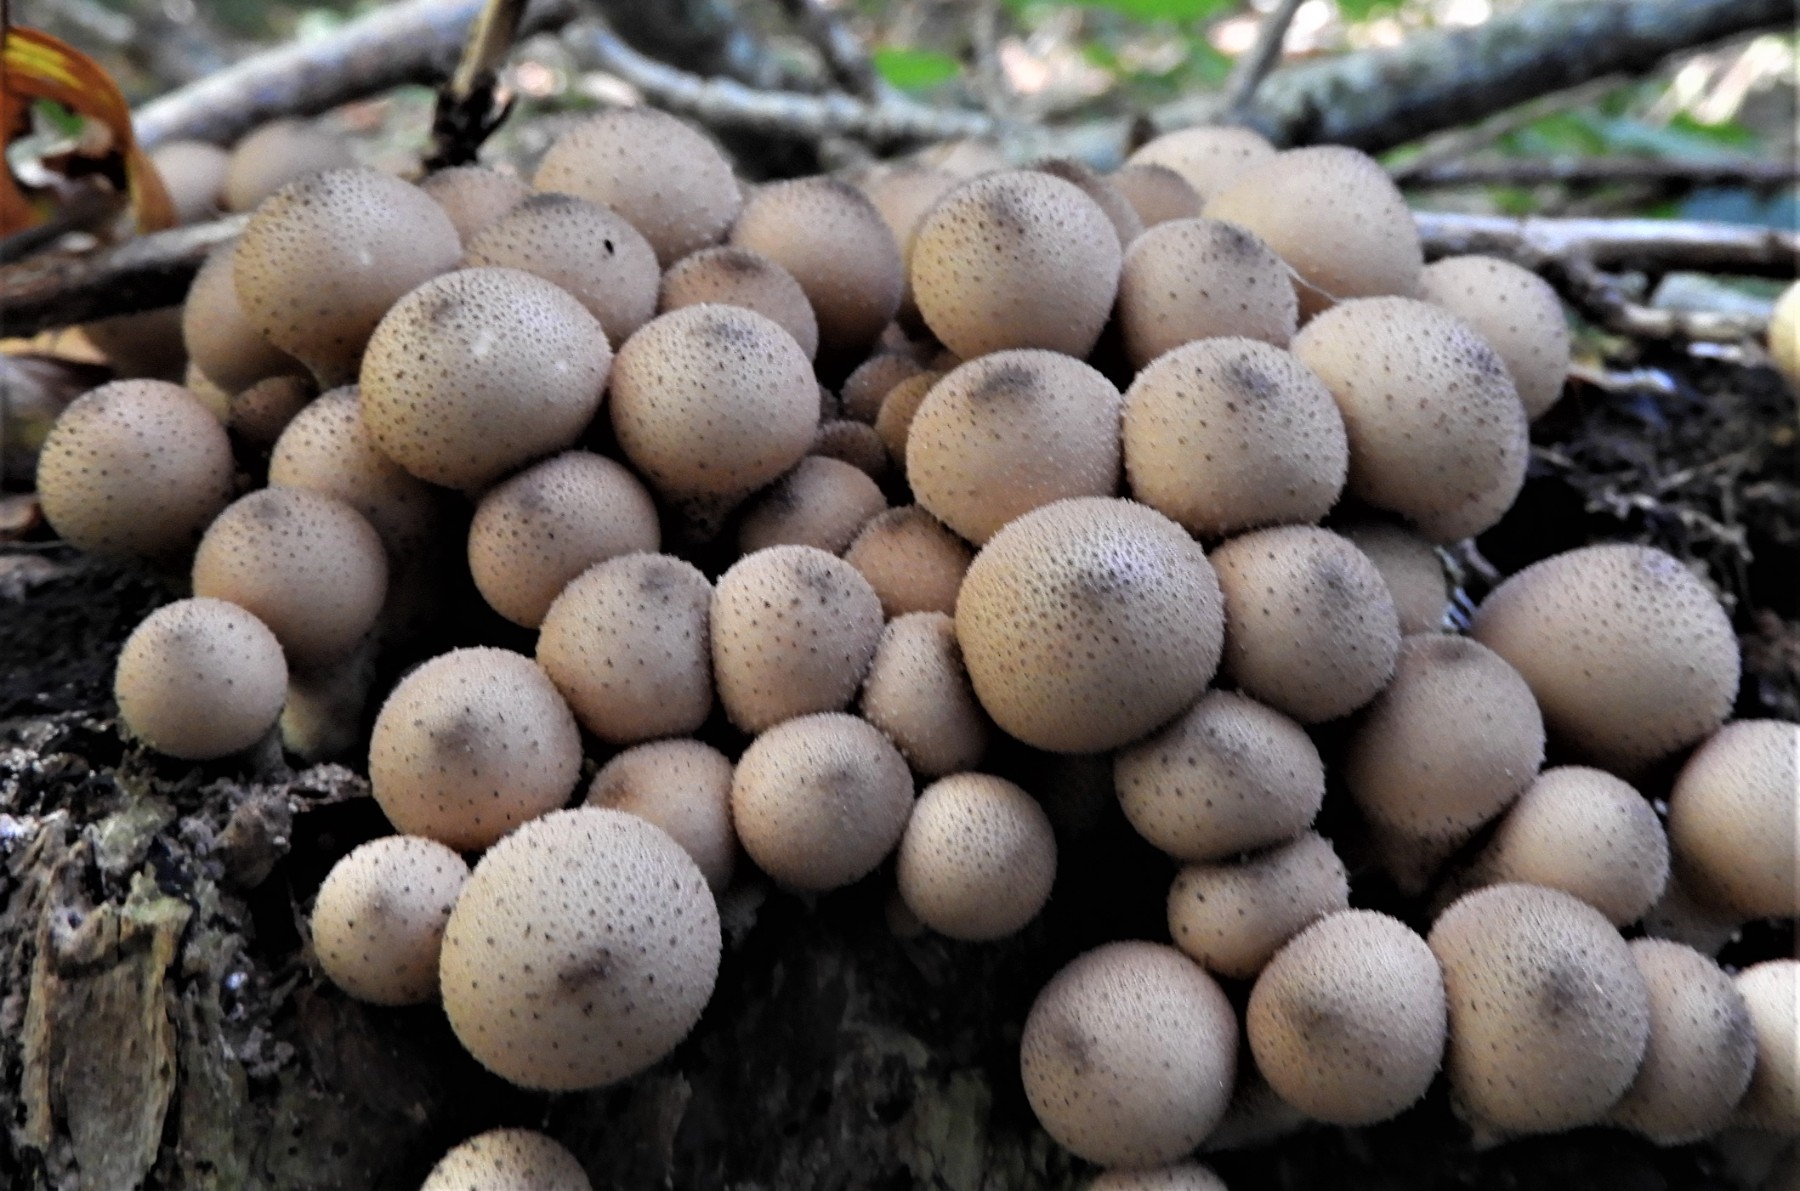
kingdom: Fungi
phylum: Basidiomycota
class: Agaricomycetes
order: Agaricales
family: Lycoperdaceae
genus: Apioperdon
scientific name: Apioperdon pyriforme
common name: pære-støvbold
